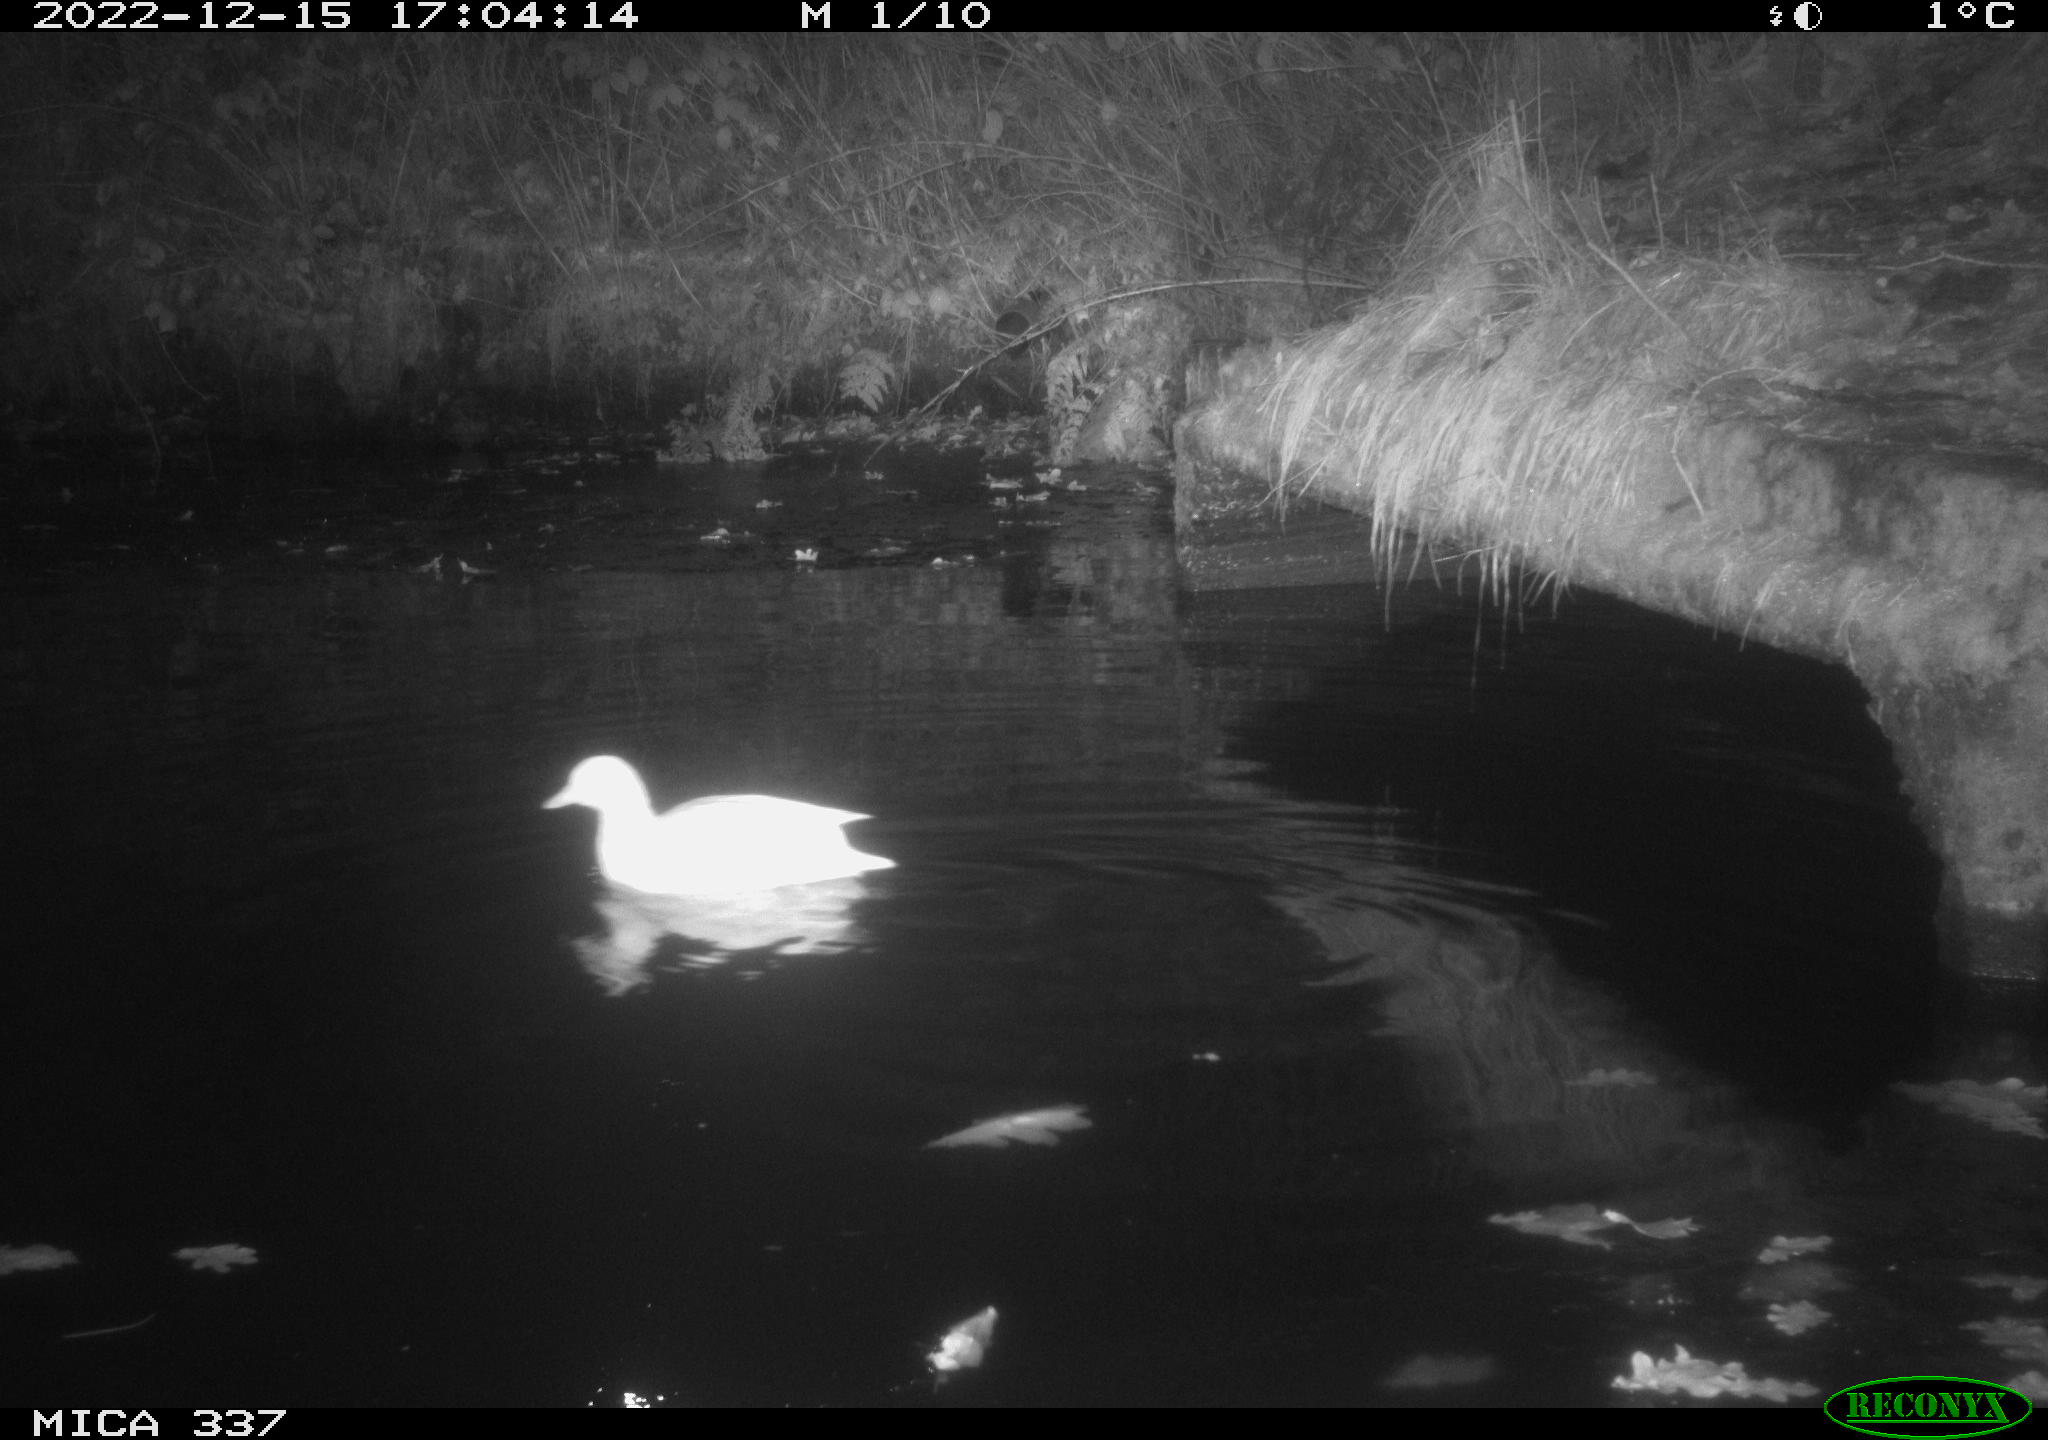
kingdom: Animalia
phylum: Chordata
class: Aves
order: Anseriformes
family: Anatidae
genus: Anas
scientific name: Anas
